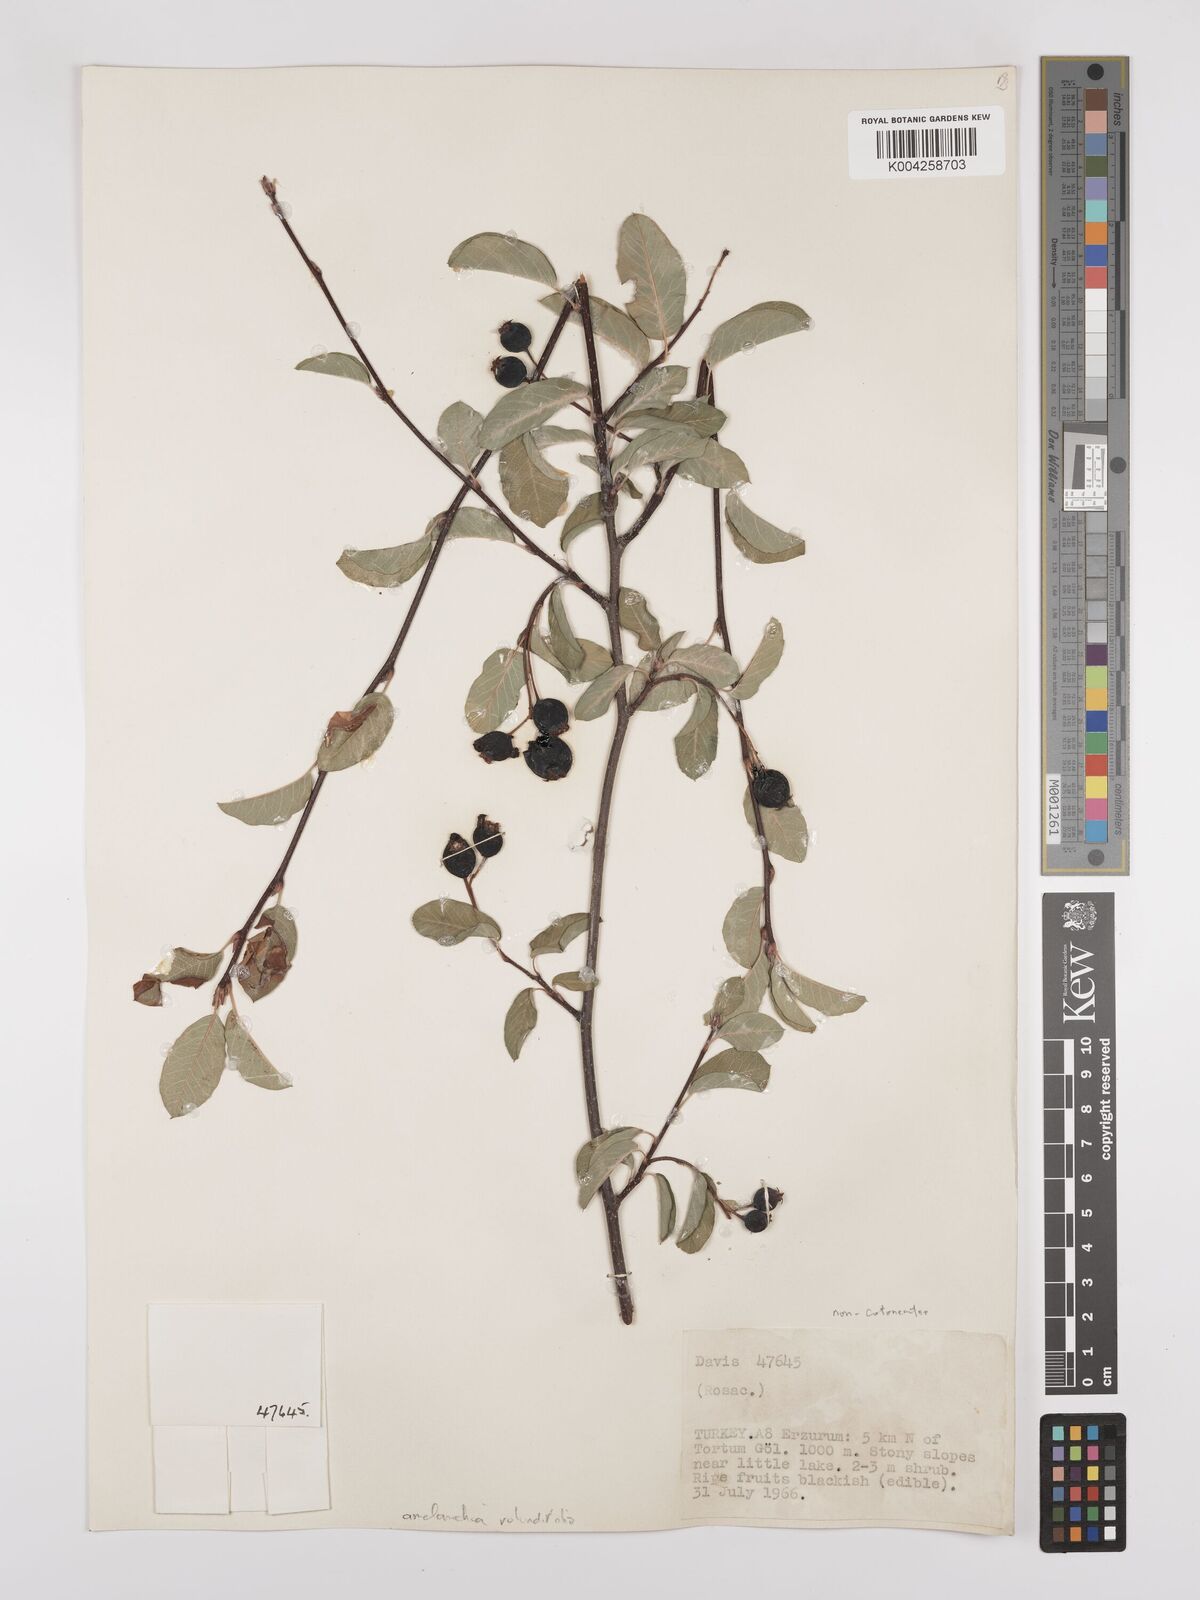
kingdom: Plantae
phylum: Tracheophyta
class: Magnoliopsida
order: Rosales
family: Rosaceae
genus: Amelanchier
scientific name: Amelanchier ovalis
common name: Serviceberry
